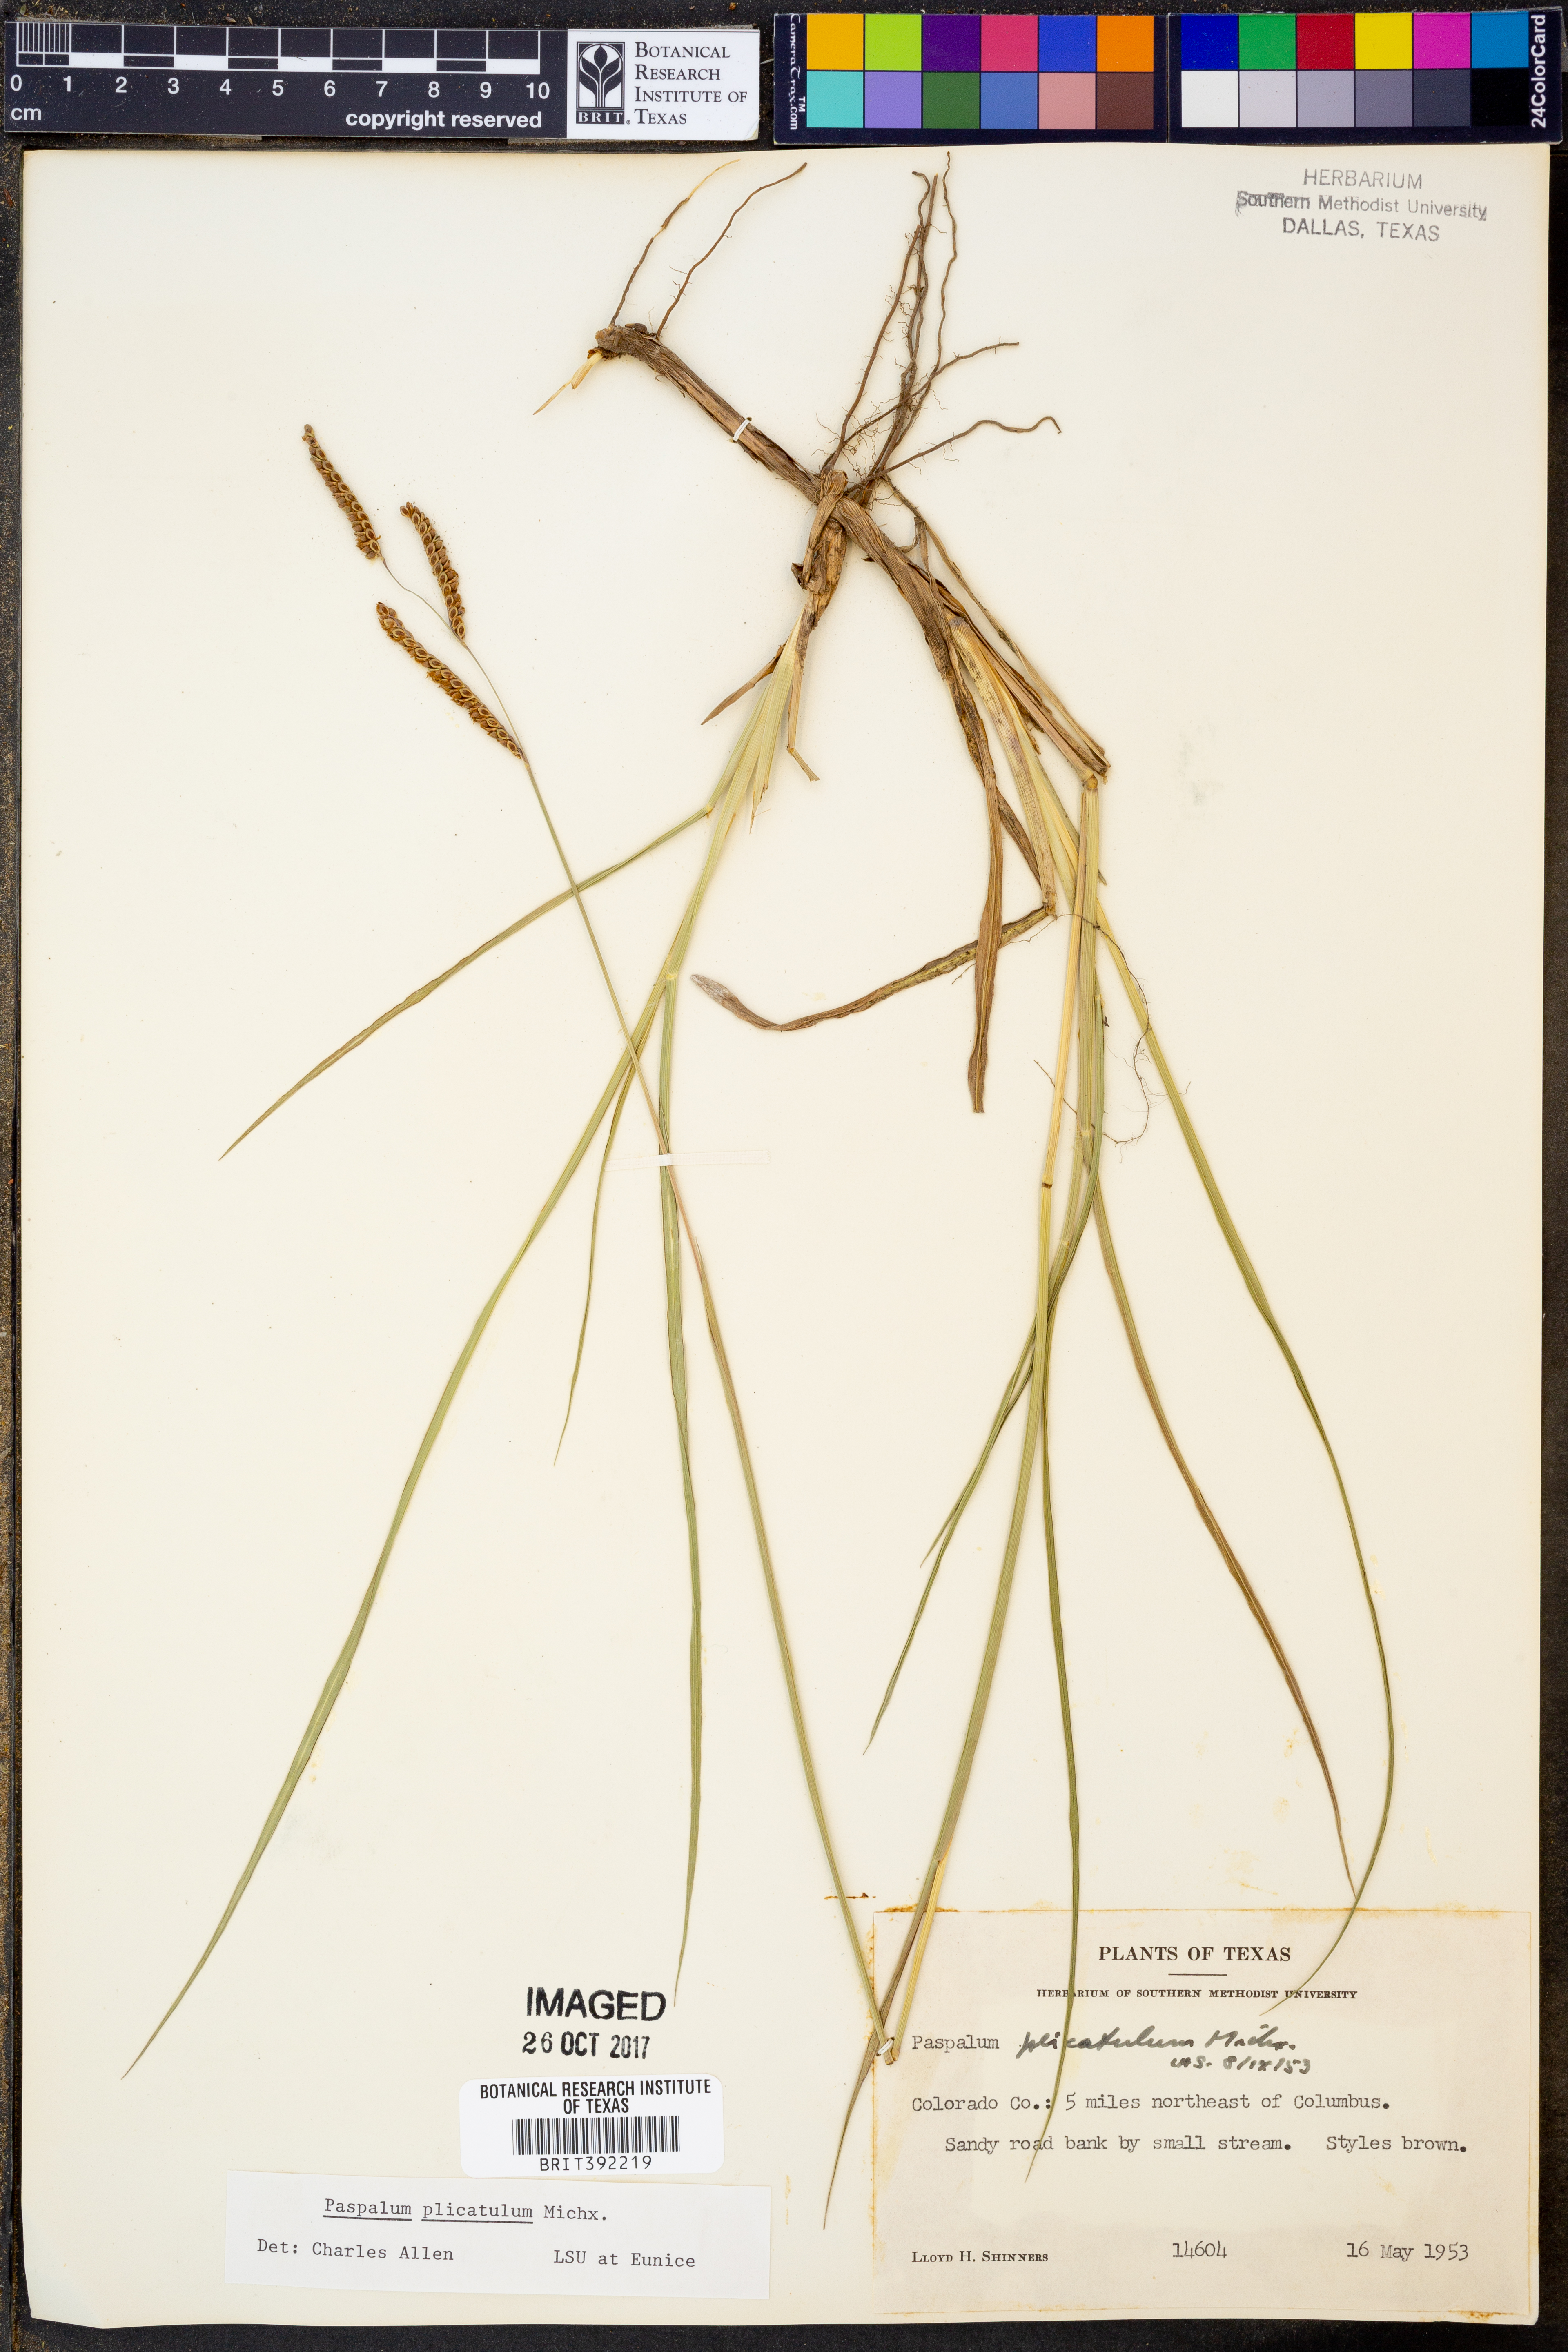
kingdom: Plantae
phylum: Tracheophyta
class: Liliopsida
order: Poales
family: Poaceae
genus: Paspalum
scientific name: Paspalum plicatulum
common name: Top paspalum
